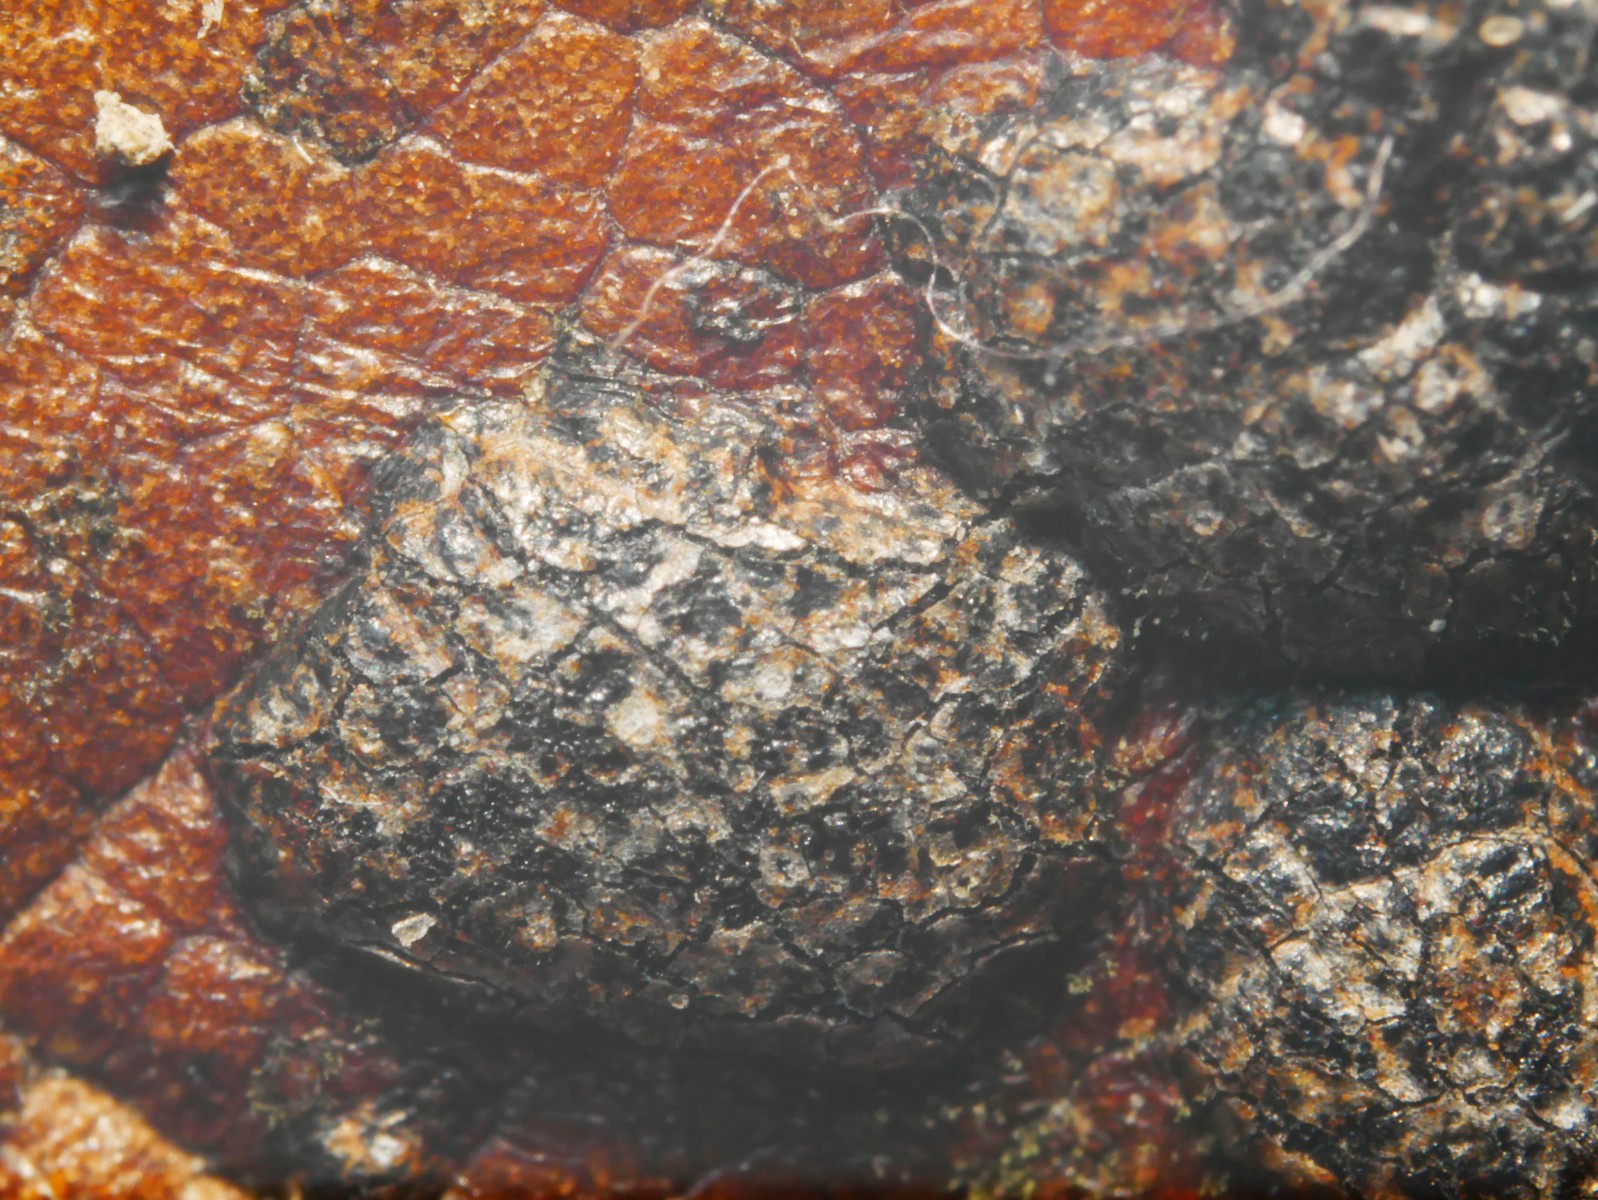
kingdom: Fungi
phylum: Ascomycota
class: Dothideomycetes
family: Polystomellaceae
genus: Dothidella
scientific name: Dothidella ulmi
